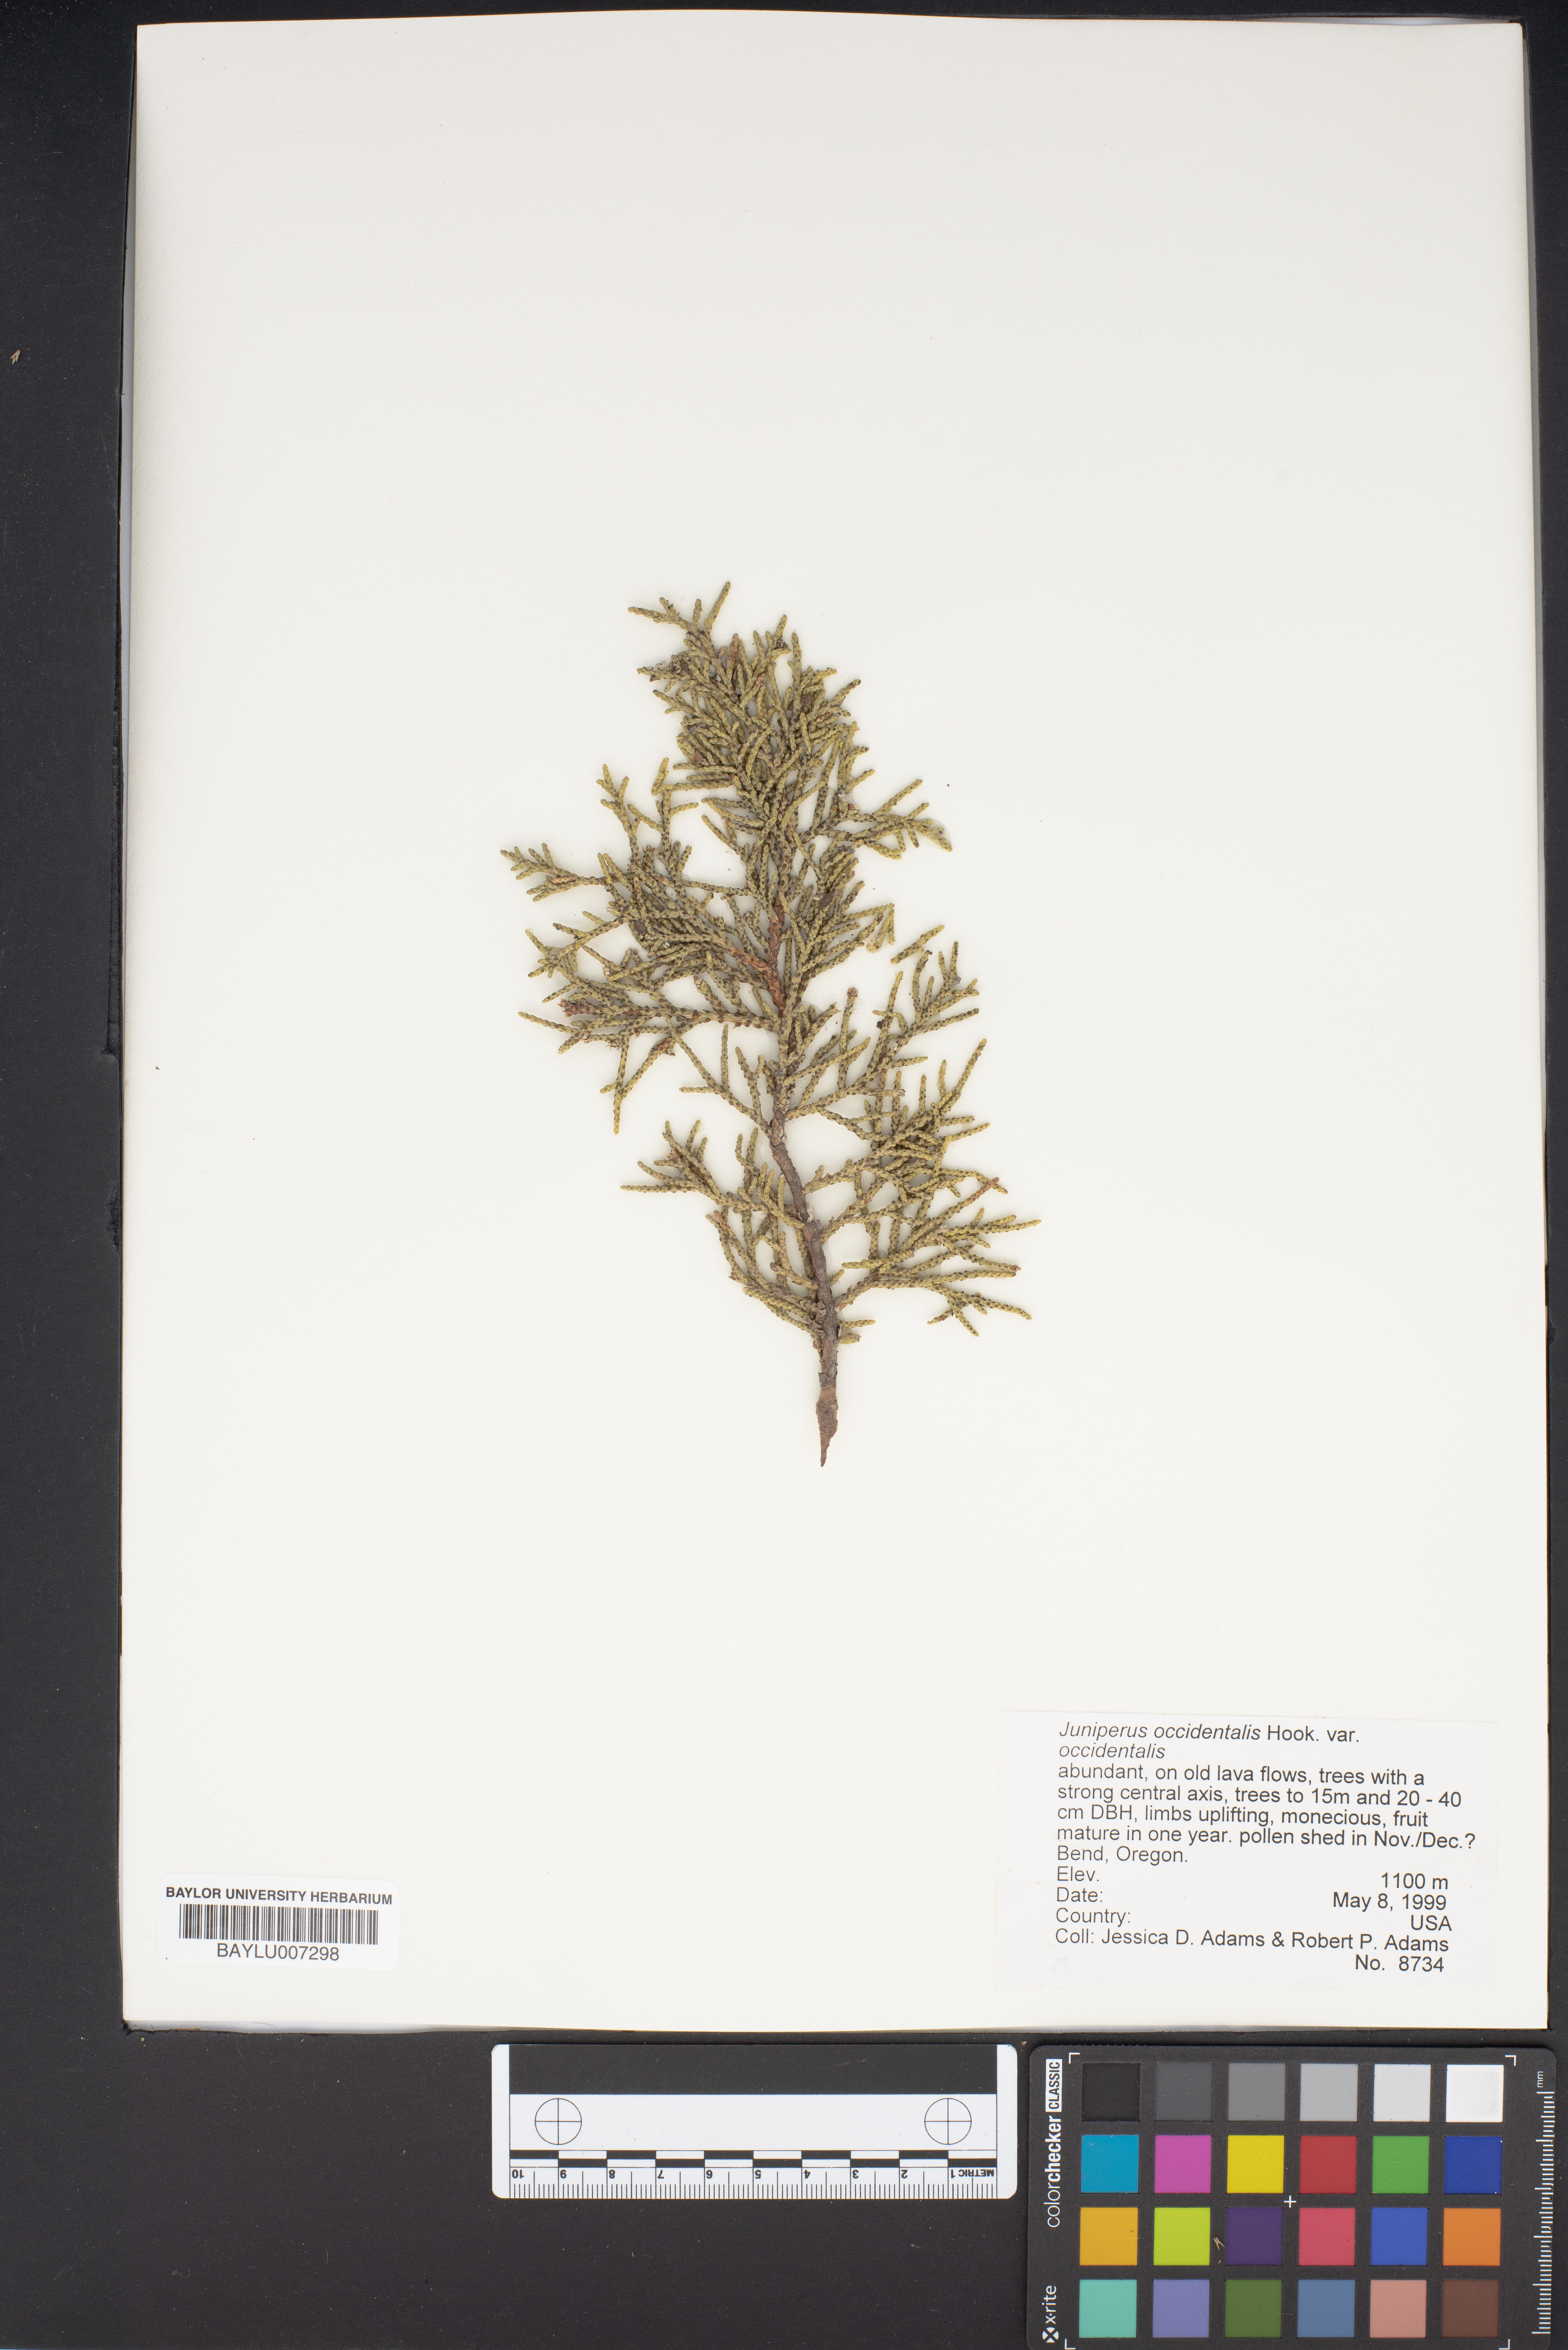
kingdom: Plantae
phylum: Tracheophyta
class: Pinopsida
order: Pinales
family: Cupressaceae
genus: Juniperus
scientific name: Juniperus occidentalis
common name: Western juniper
